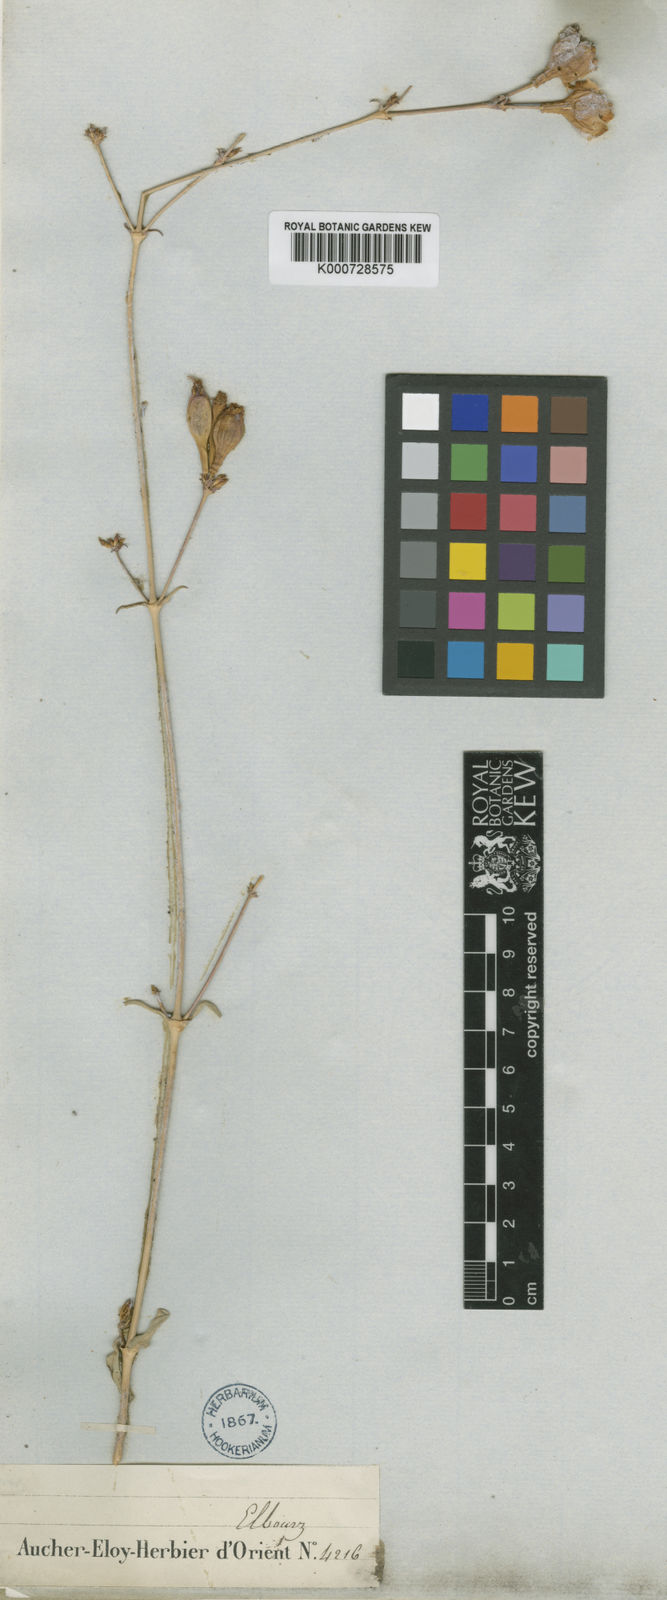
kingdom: Plantae
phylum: Tracheophyta
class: Magnoliopsida
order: Caryophyllales
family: Caryophyllaceae
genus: Silene
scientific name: Silene odontopetala
